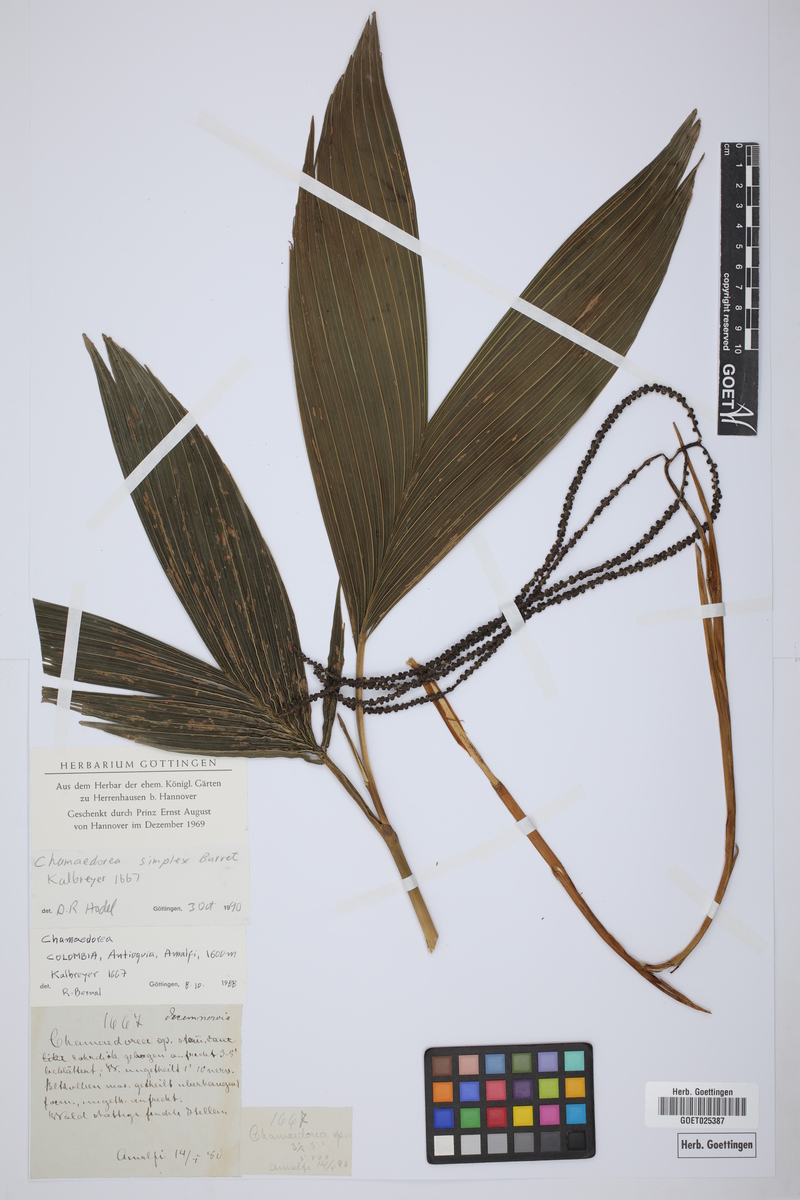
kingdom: Plantae
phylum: Tracheophyta
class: Liliopsida
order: Arecales
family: Arecaceae
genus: Chamaedorea
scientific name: Chamaedorea simplex
